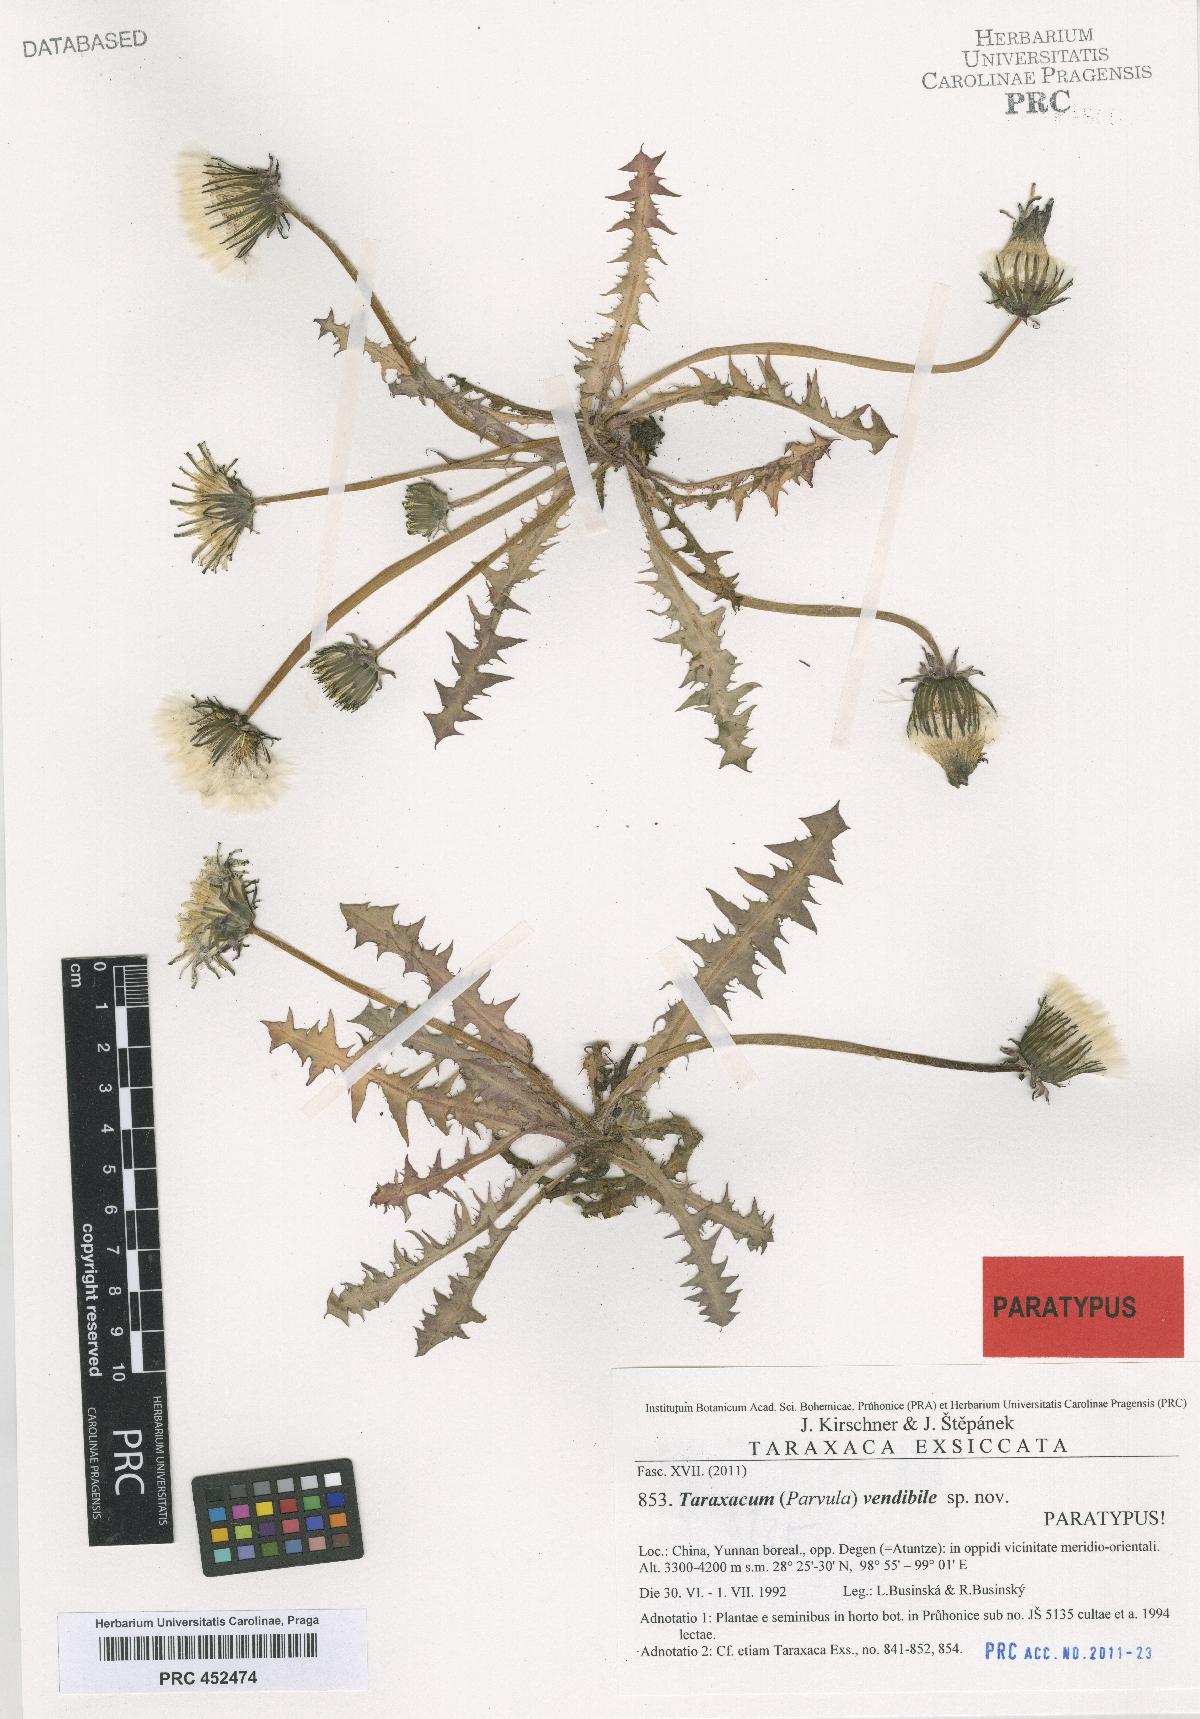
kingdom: Plantae
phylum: Tracheophyta
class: Magnoliopsida
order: Asterales
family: Asteraceae
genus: Taraxacum
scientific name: Taraxacum vendibile
